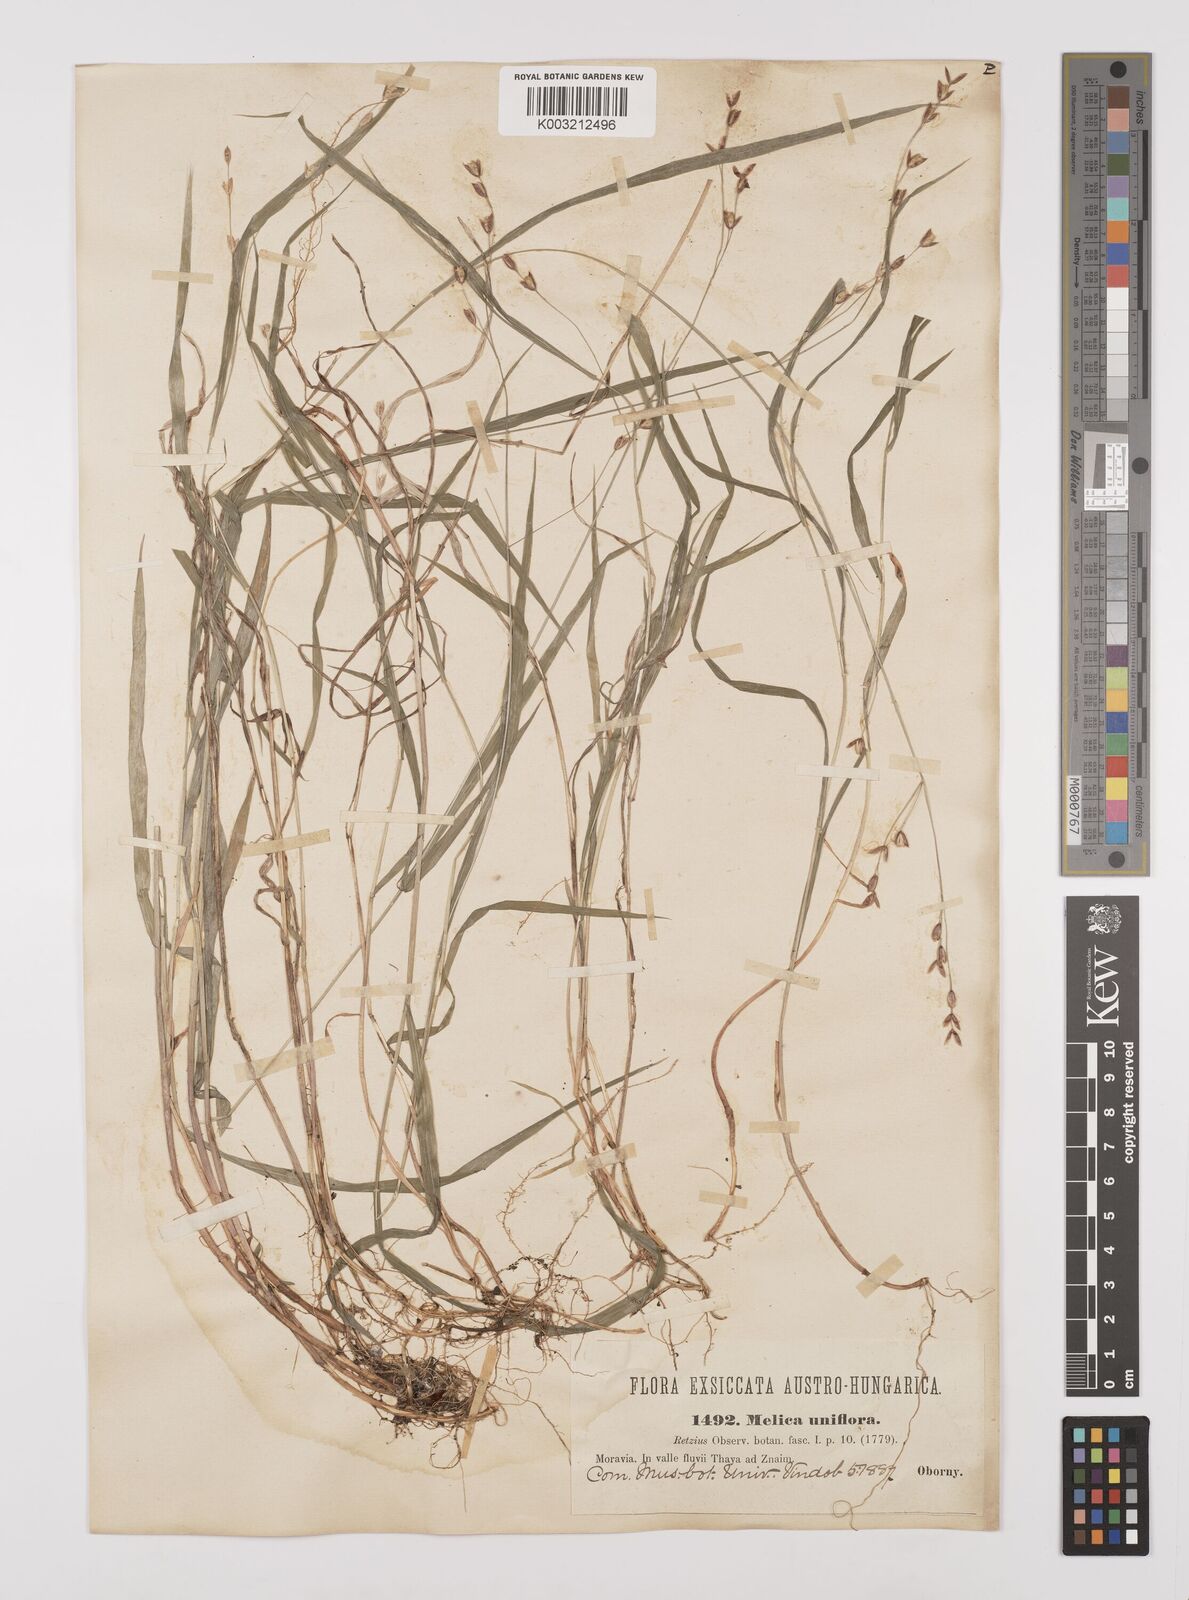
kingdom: Plantae
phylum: Tracheophyta
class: Liliopsida
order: Poales
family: Poaceae
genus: Melica
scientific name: Melica uniflora
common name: Wood melick
